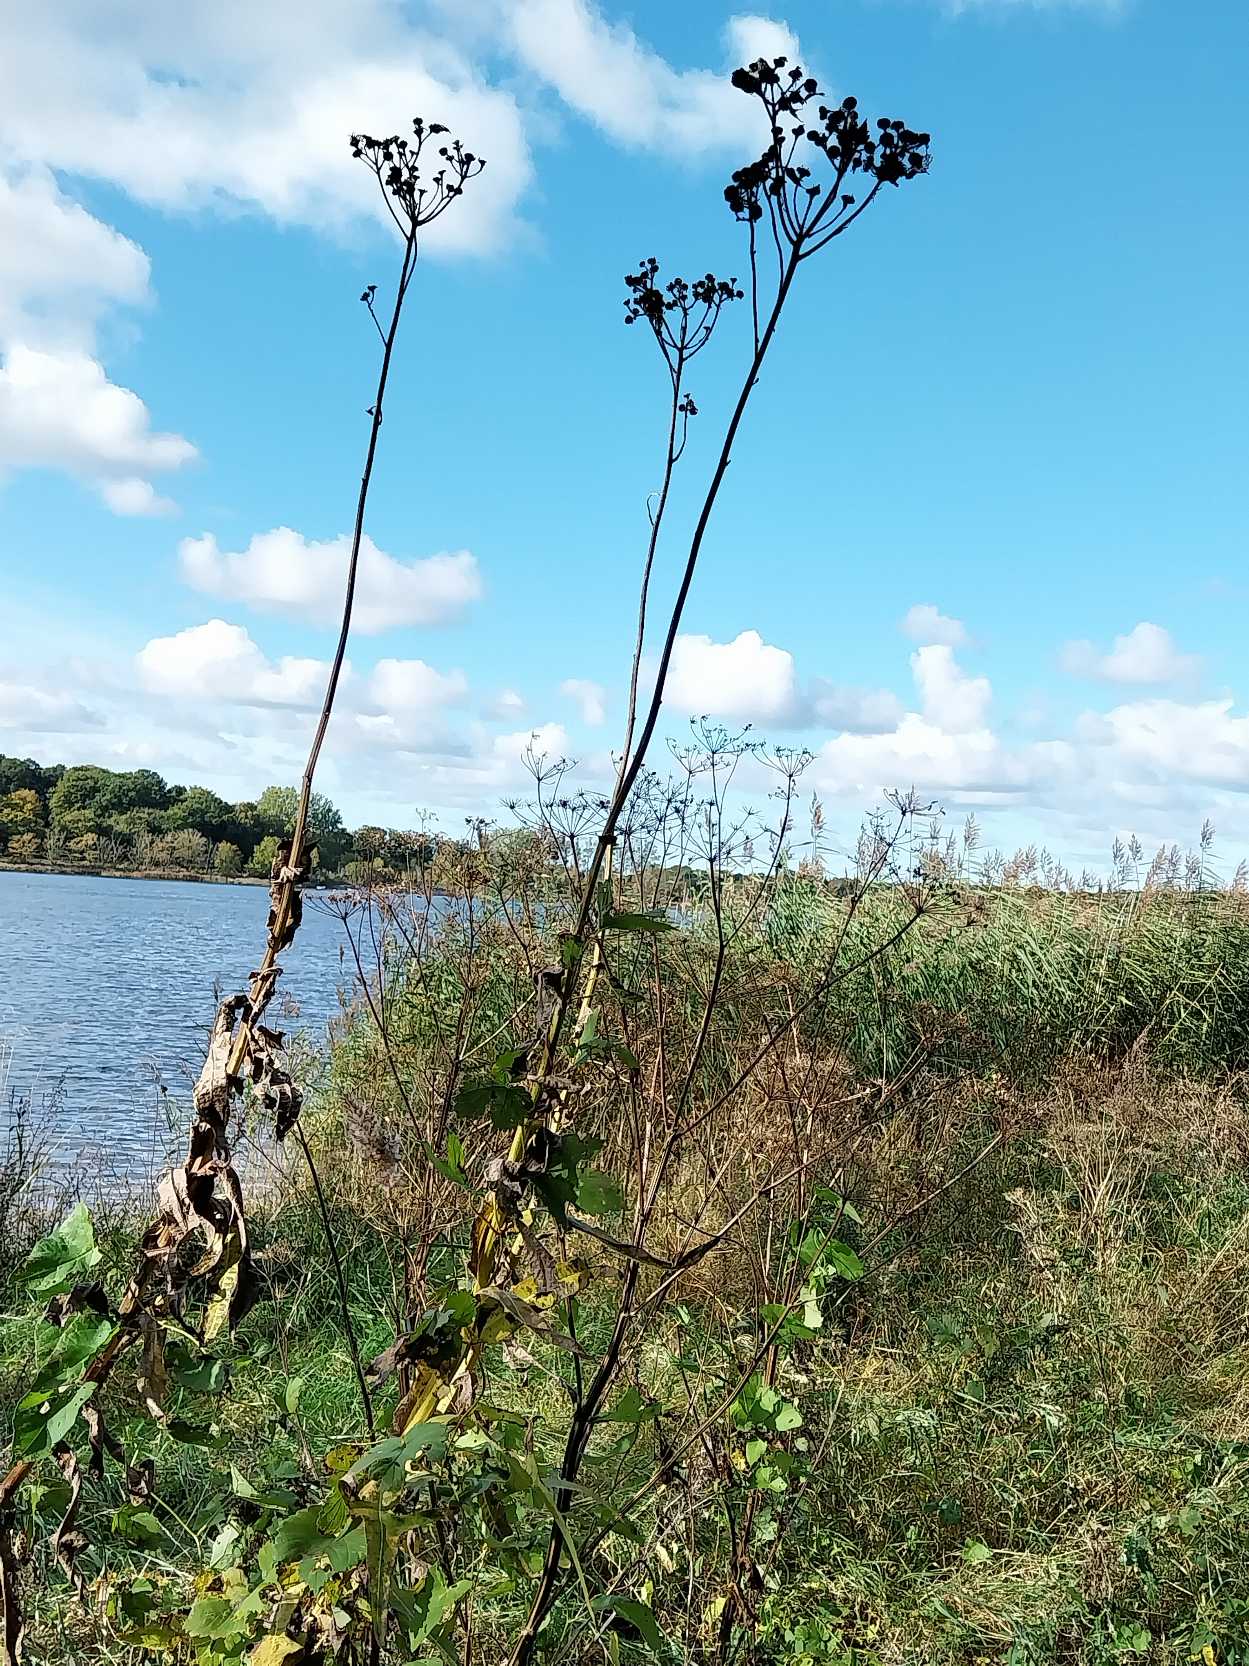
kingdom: Plantae
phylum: Tracheophyta
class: Magnoliopsida
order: Asterales
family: Asteraceae
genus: Sonchus
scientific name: Sonchus palustris
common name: Kær-svinemælk
